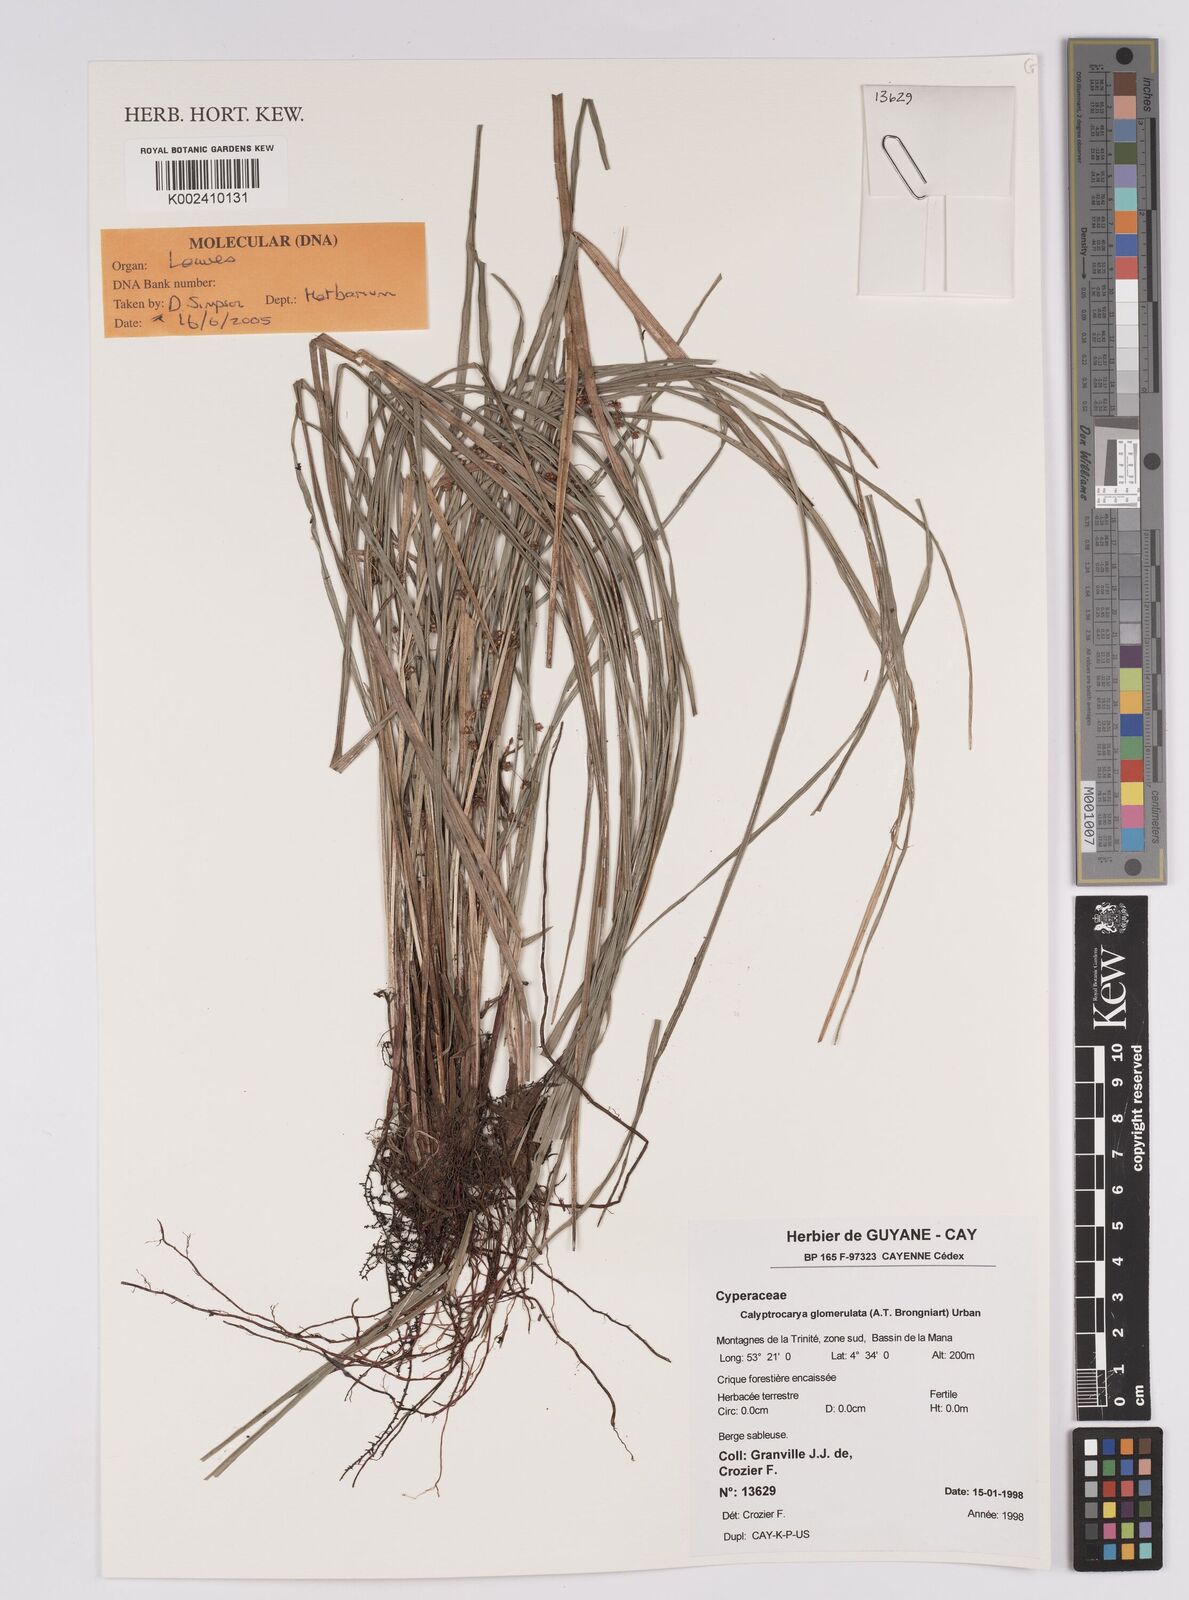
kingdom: Plantae
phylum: Tracheophyta
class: Liliopsida
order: Poales
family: Cyperaceae
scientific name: Cyperaceae
